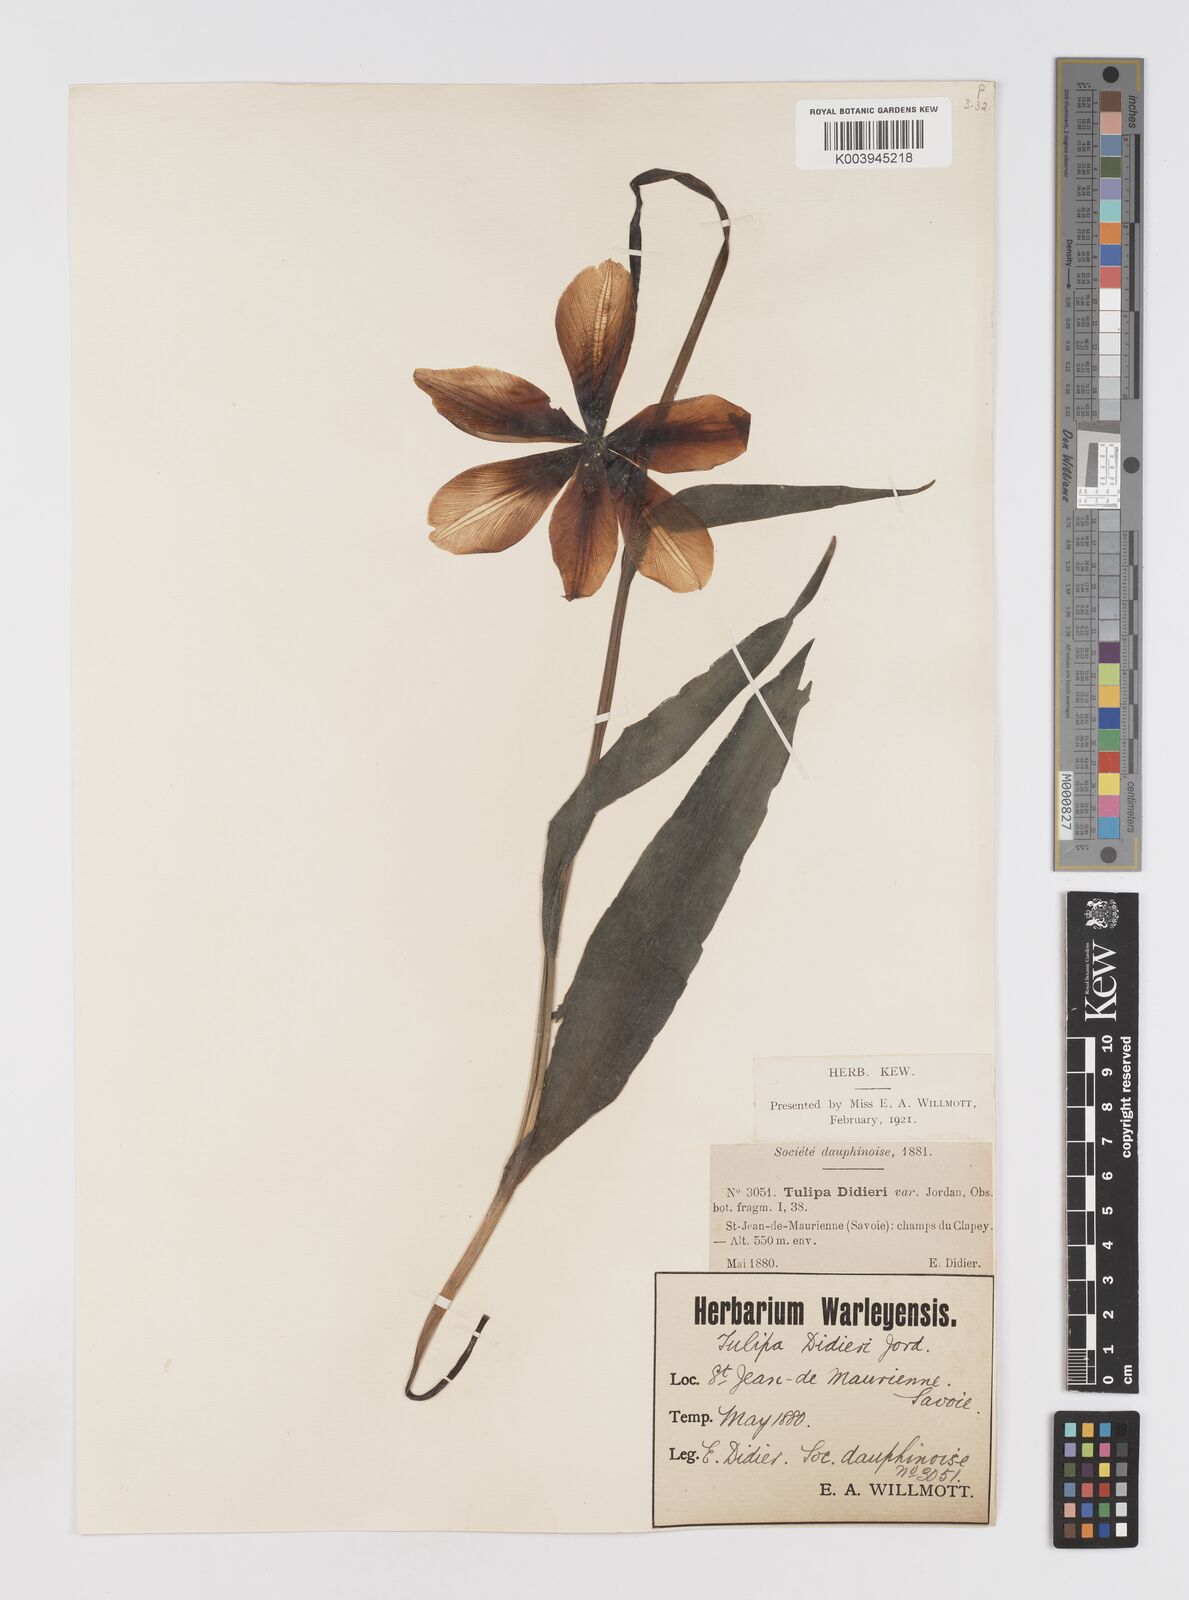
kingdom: Plantae
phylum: Tracheophyta
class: Liliopsida
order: Liliales
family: Liliaceae
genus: Tulipa
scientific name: Tulipa gesneriana
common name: Garden tulip
